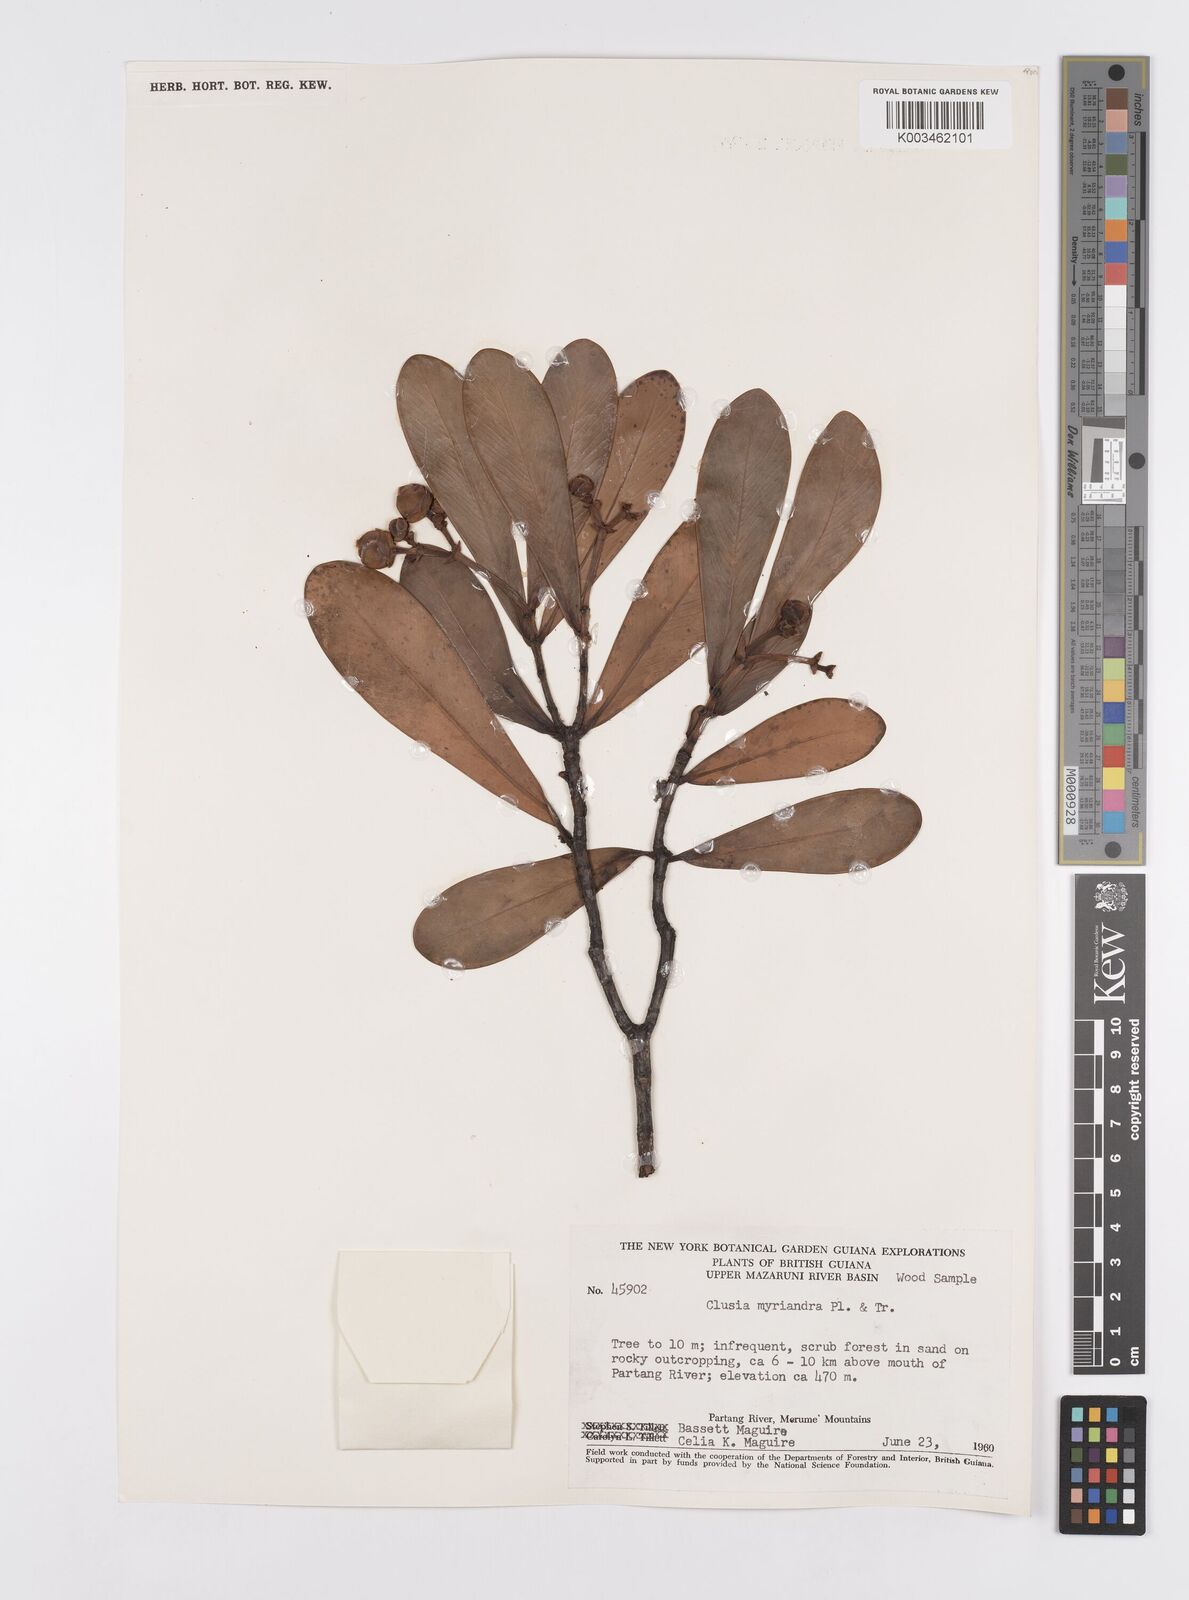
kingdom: Plantae
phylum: Tracheophyta
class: Magnoliopsida
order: Malpighiales
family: Clusiaceae
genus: Clusia
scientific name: Clusia myriandra
